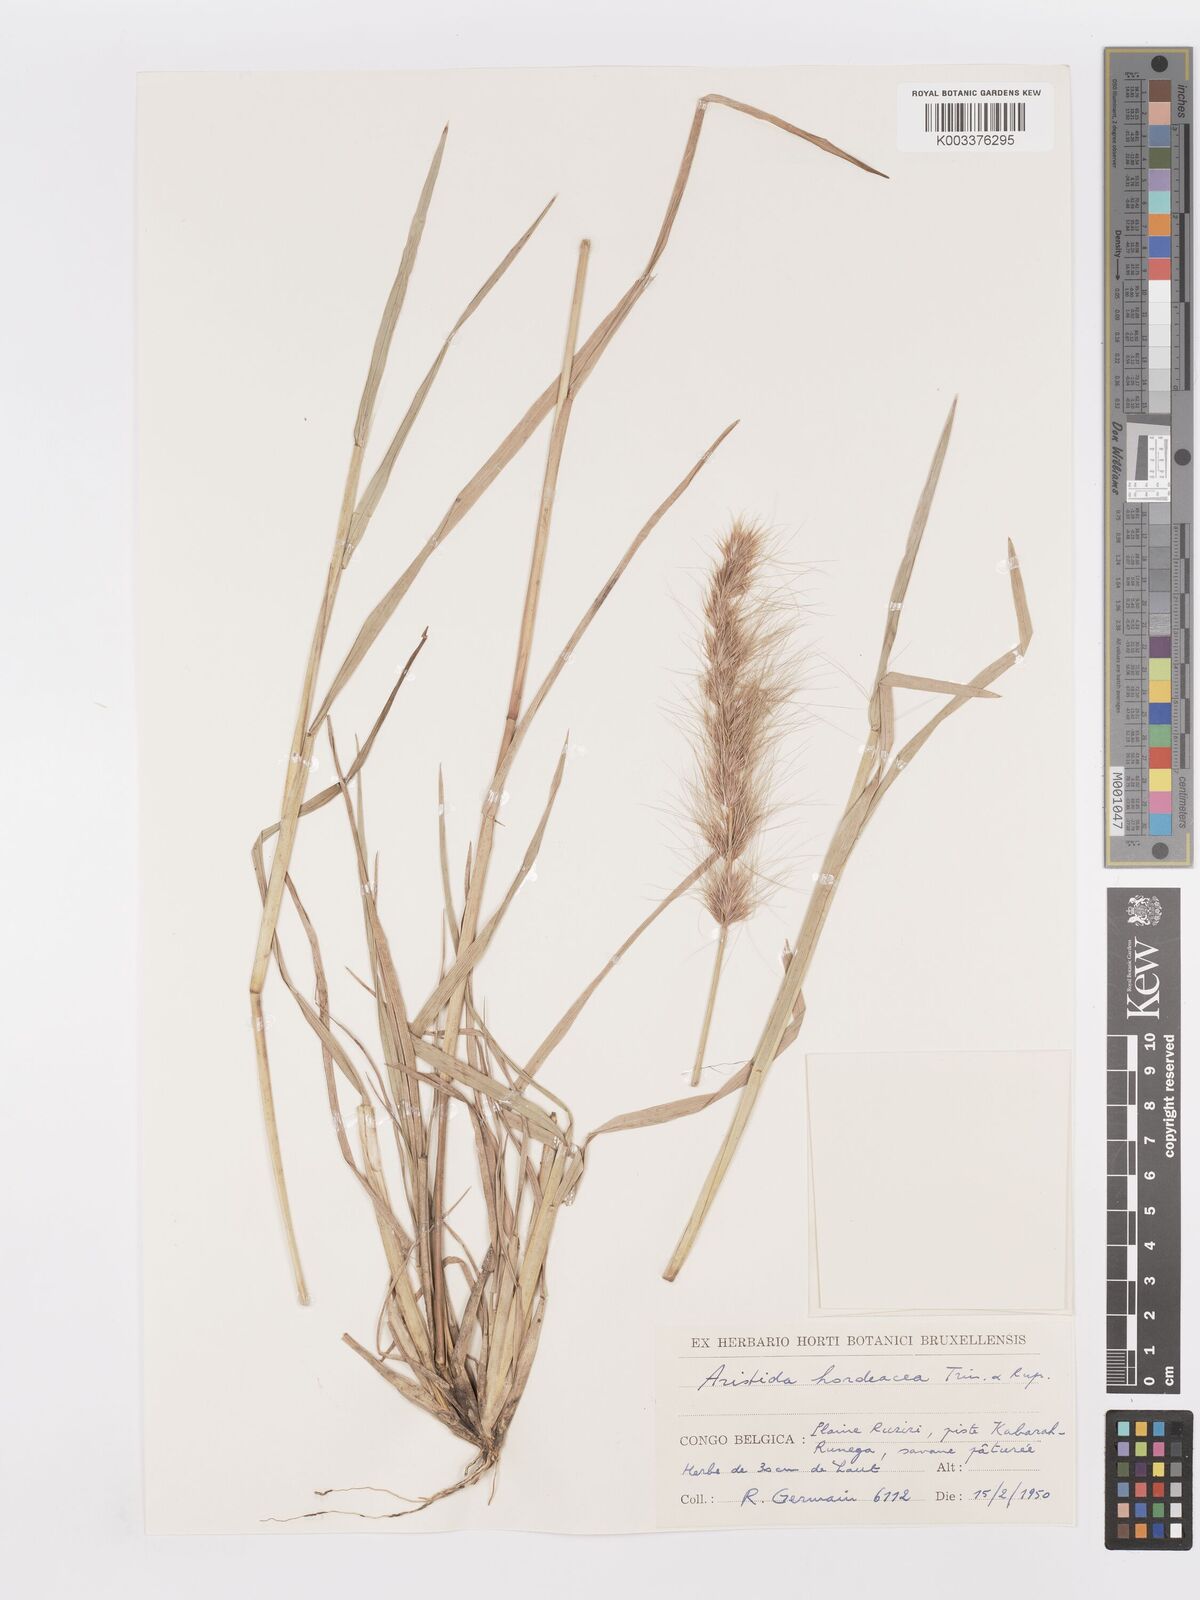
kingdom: Plantae
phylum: Tracheophyta
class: Liliopsida
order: Poales
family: Poaceae
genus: Aristida
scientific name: Aristida hordeacea
